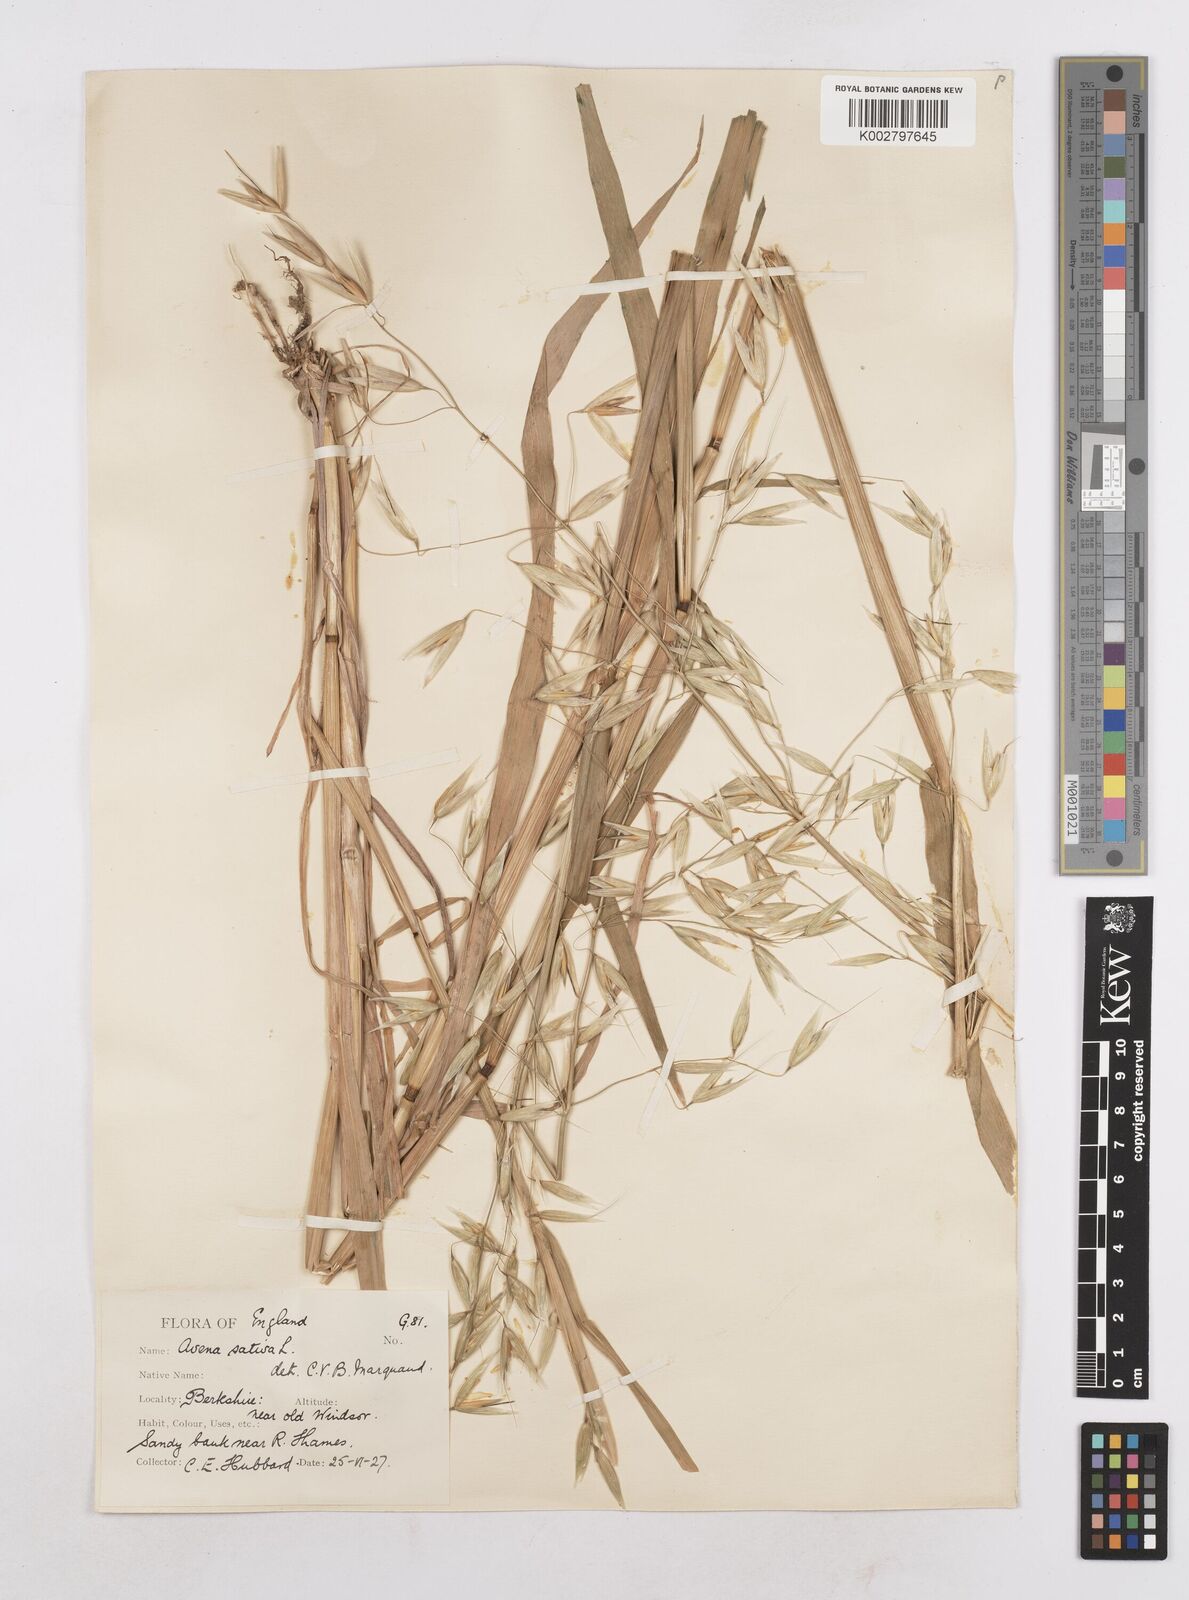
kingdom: Plantae
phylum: Tracheophyta
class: Liliopsida
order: Poales
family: Poaceae
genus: Avena
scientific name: Avena byzantina
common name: Algerian oat
